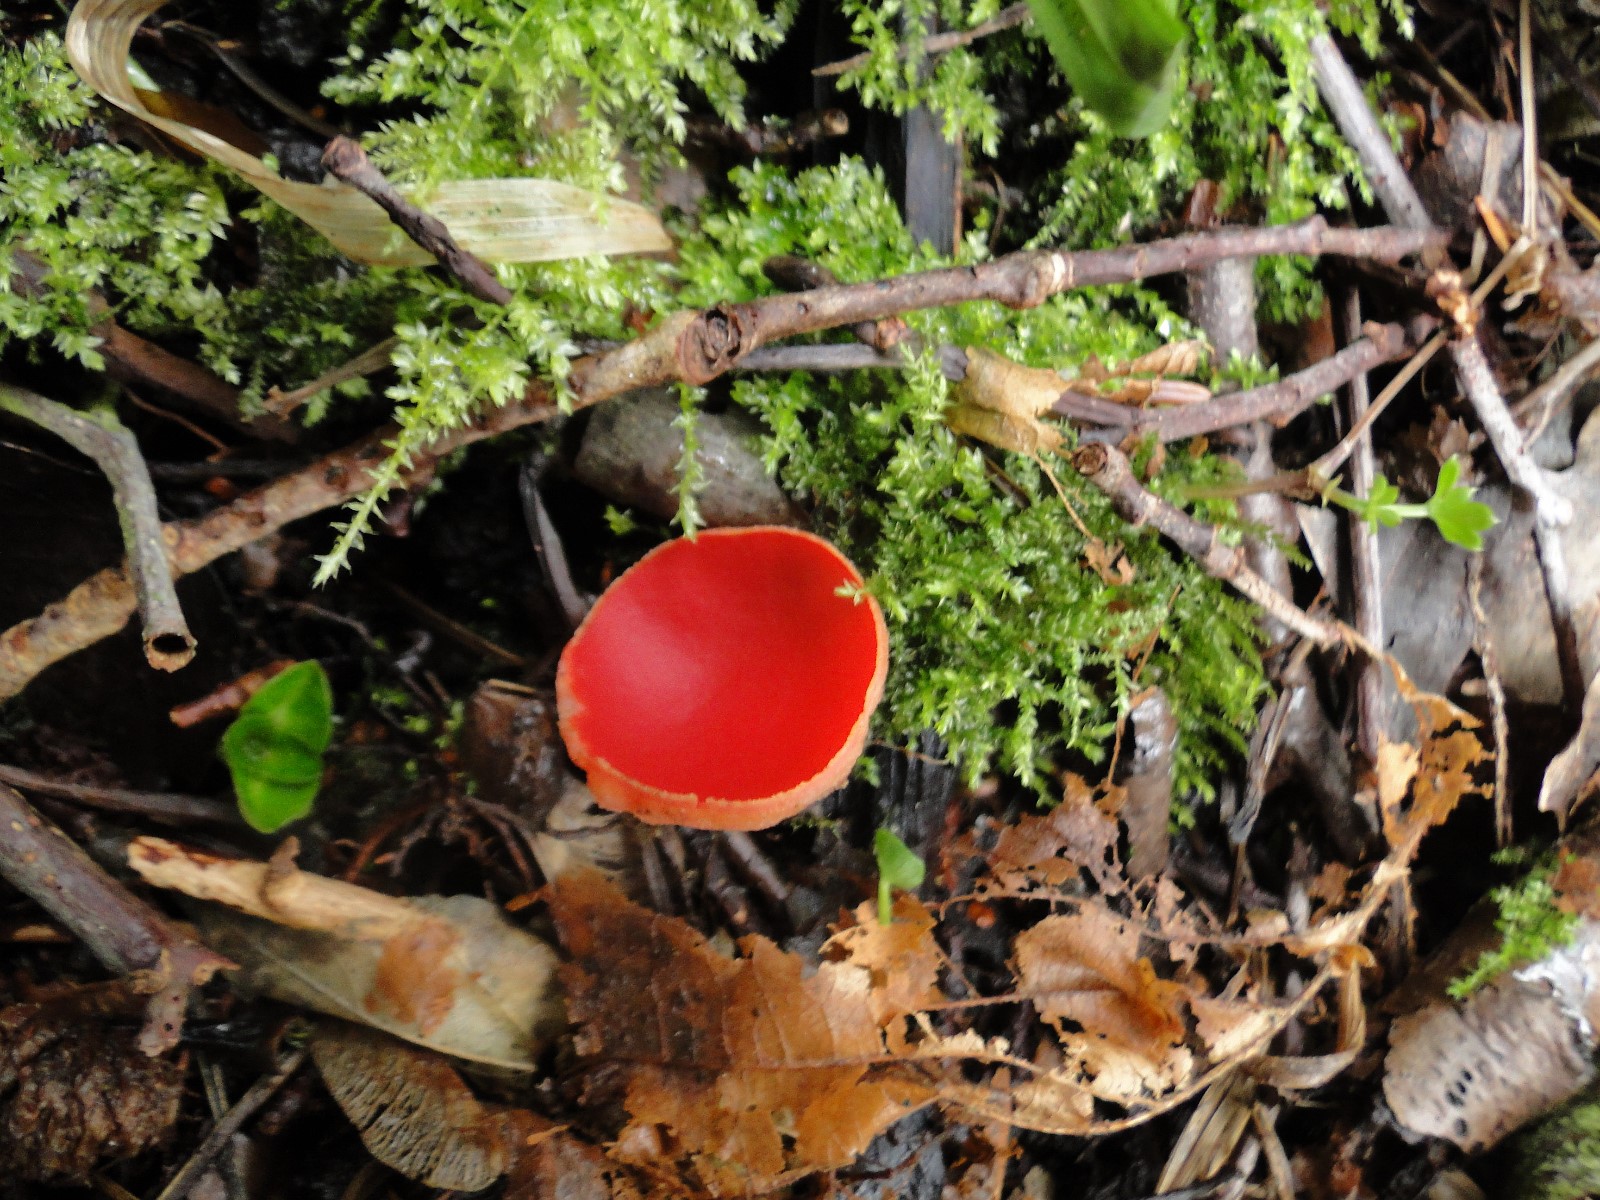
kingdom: Fungi
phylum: Ascomycota
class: Pezizomycetes
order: Pezizales
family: Sarcoscyphaceae
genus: Sarcoscypha
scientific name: Sarcoscypha austriaca
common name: krølhåret pragtbæger
